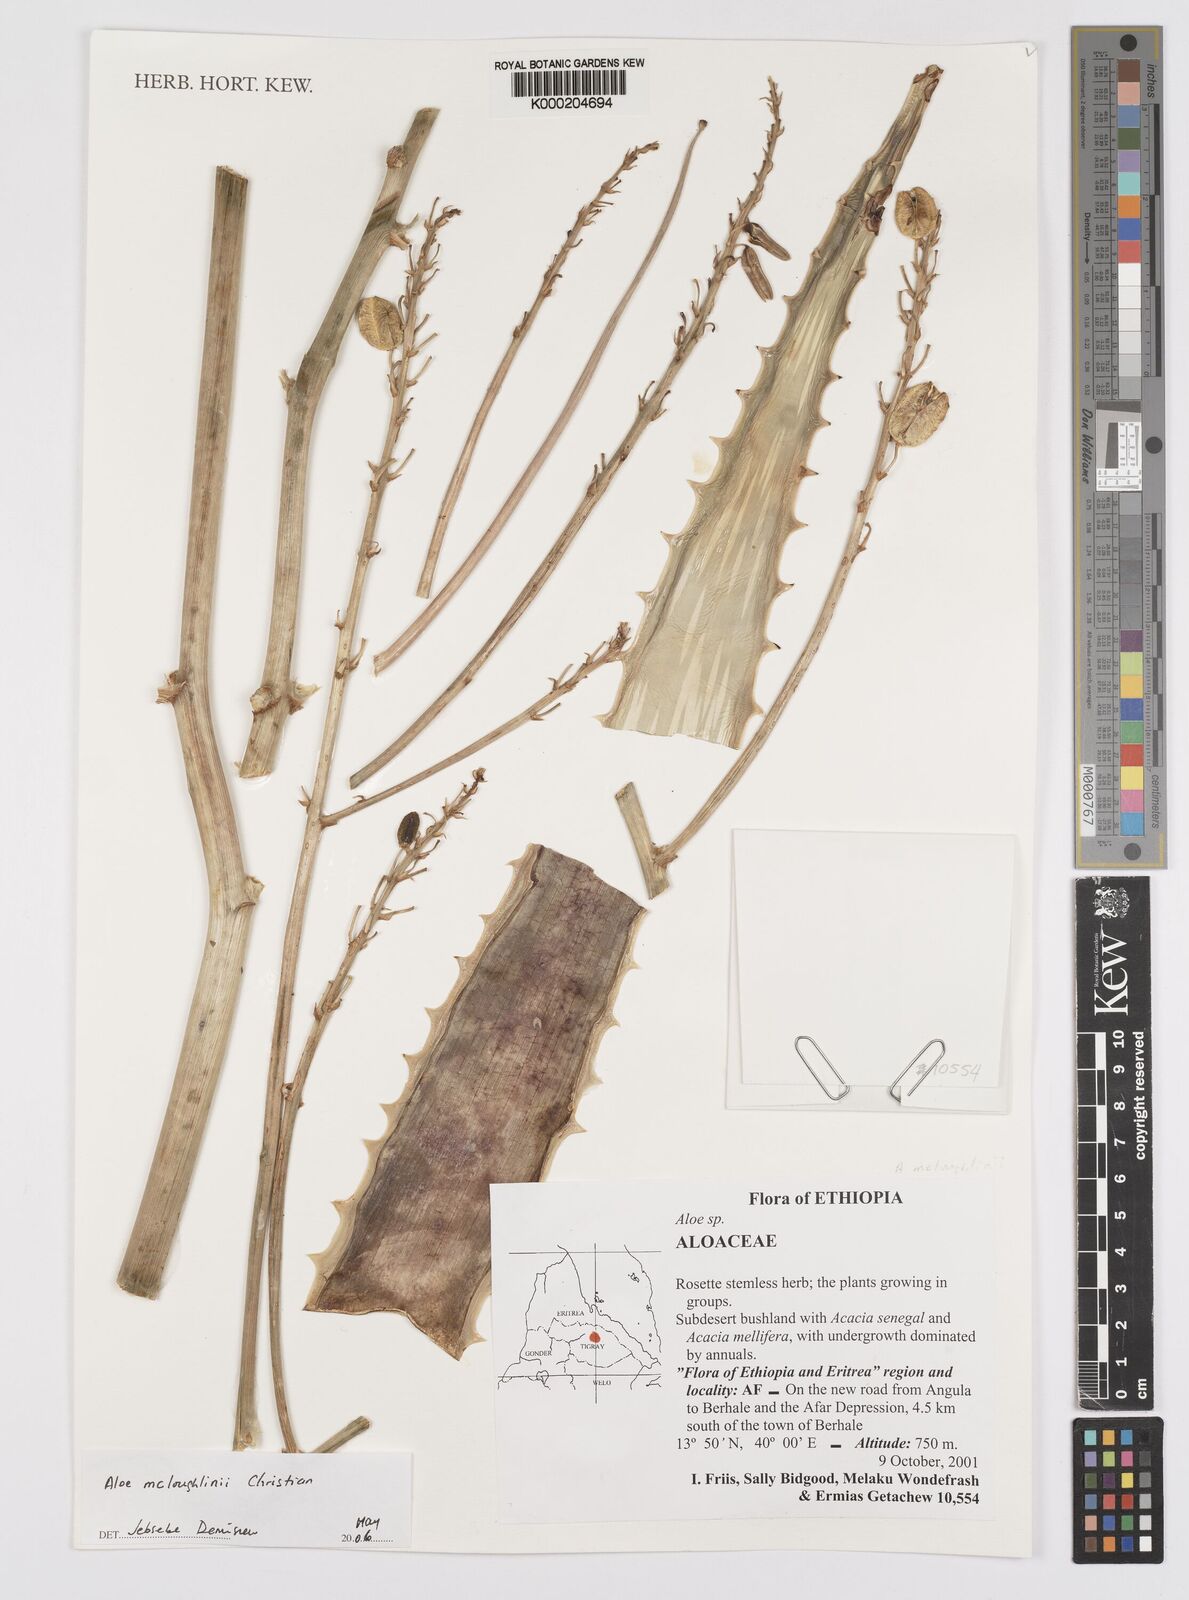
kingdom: Plantae
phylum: Tracheophyta
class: Liliopsida
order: Asparagales
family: Asphodelaceae
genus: Aloe
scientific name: Aloe mcloughlinii
